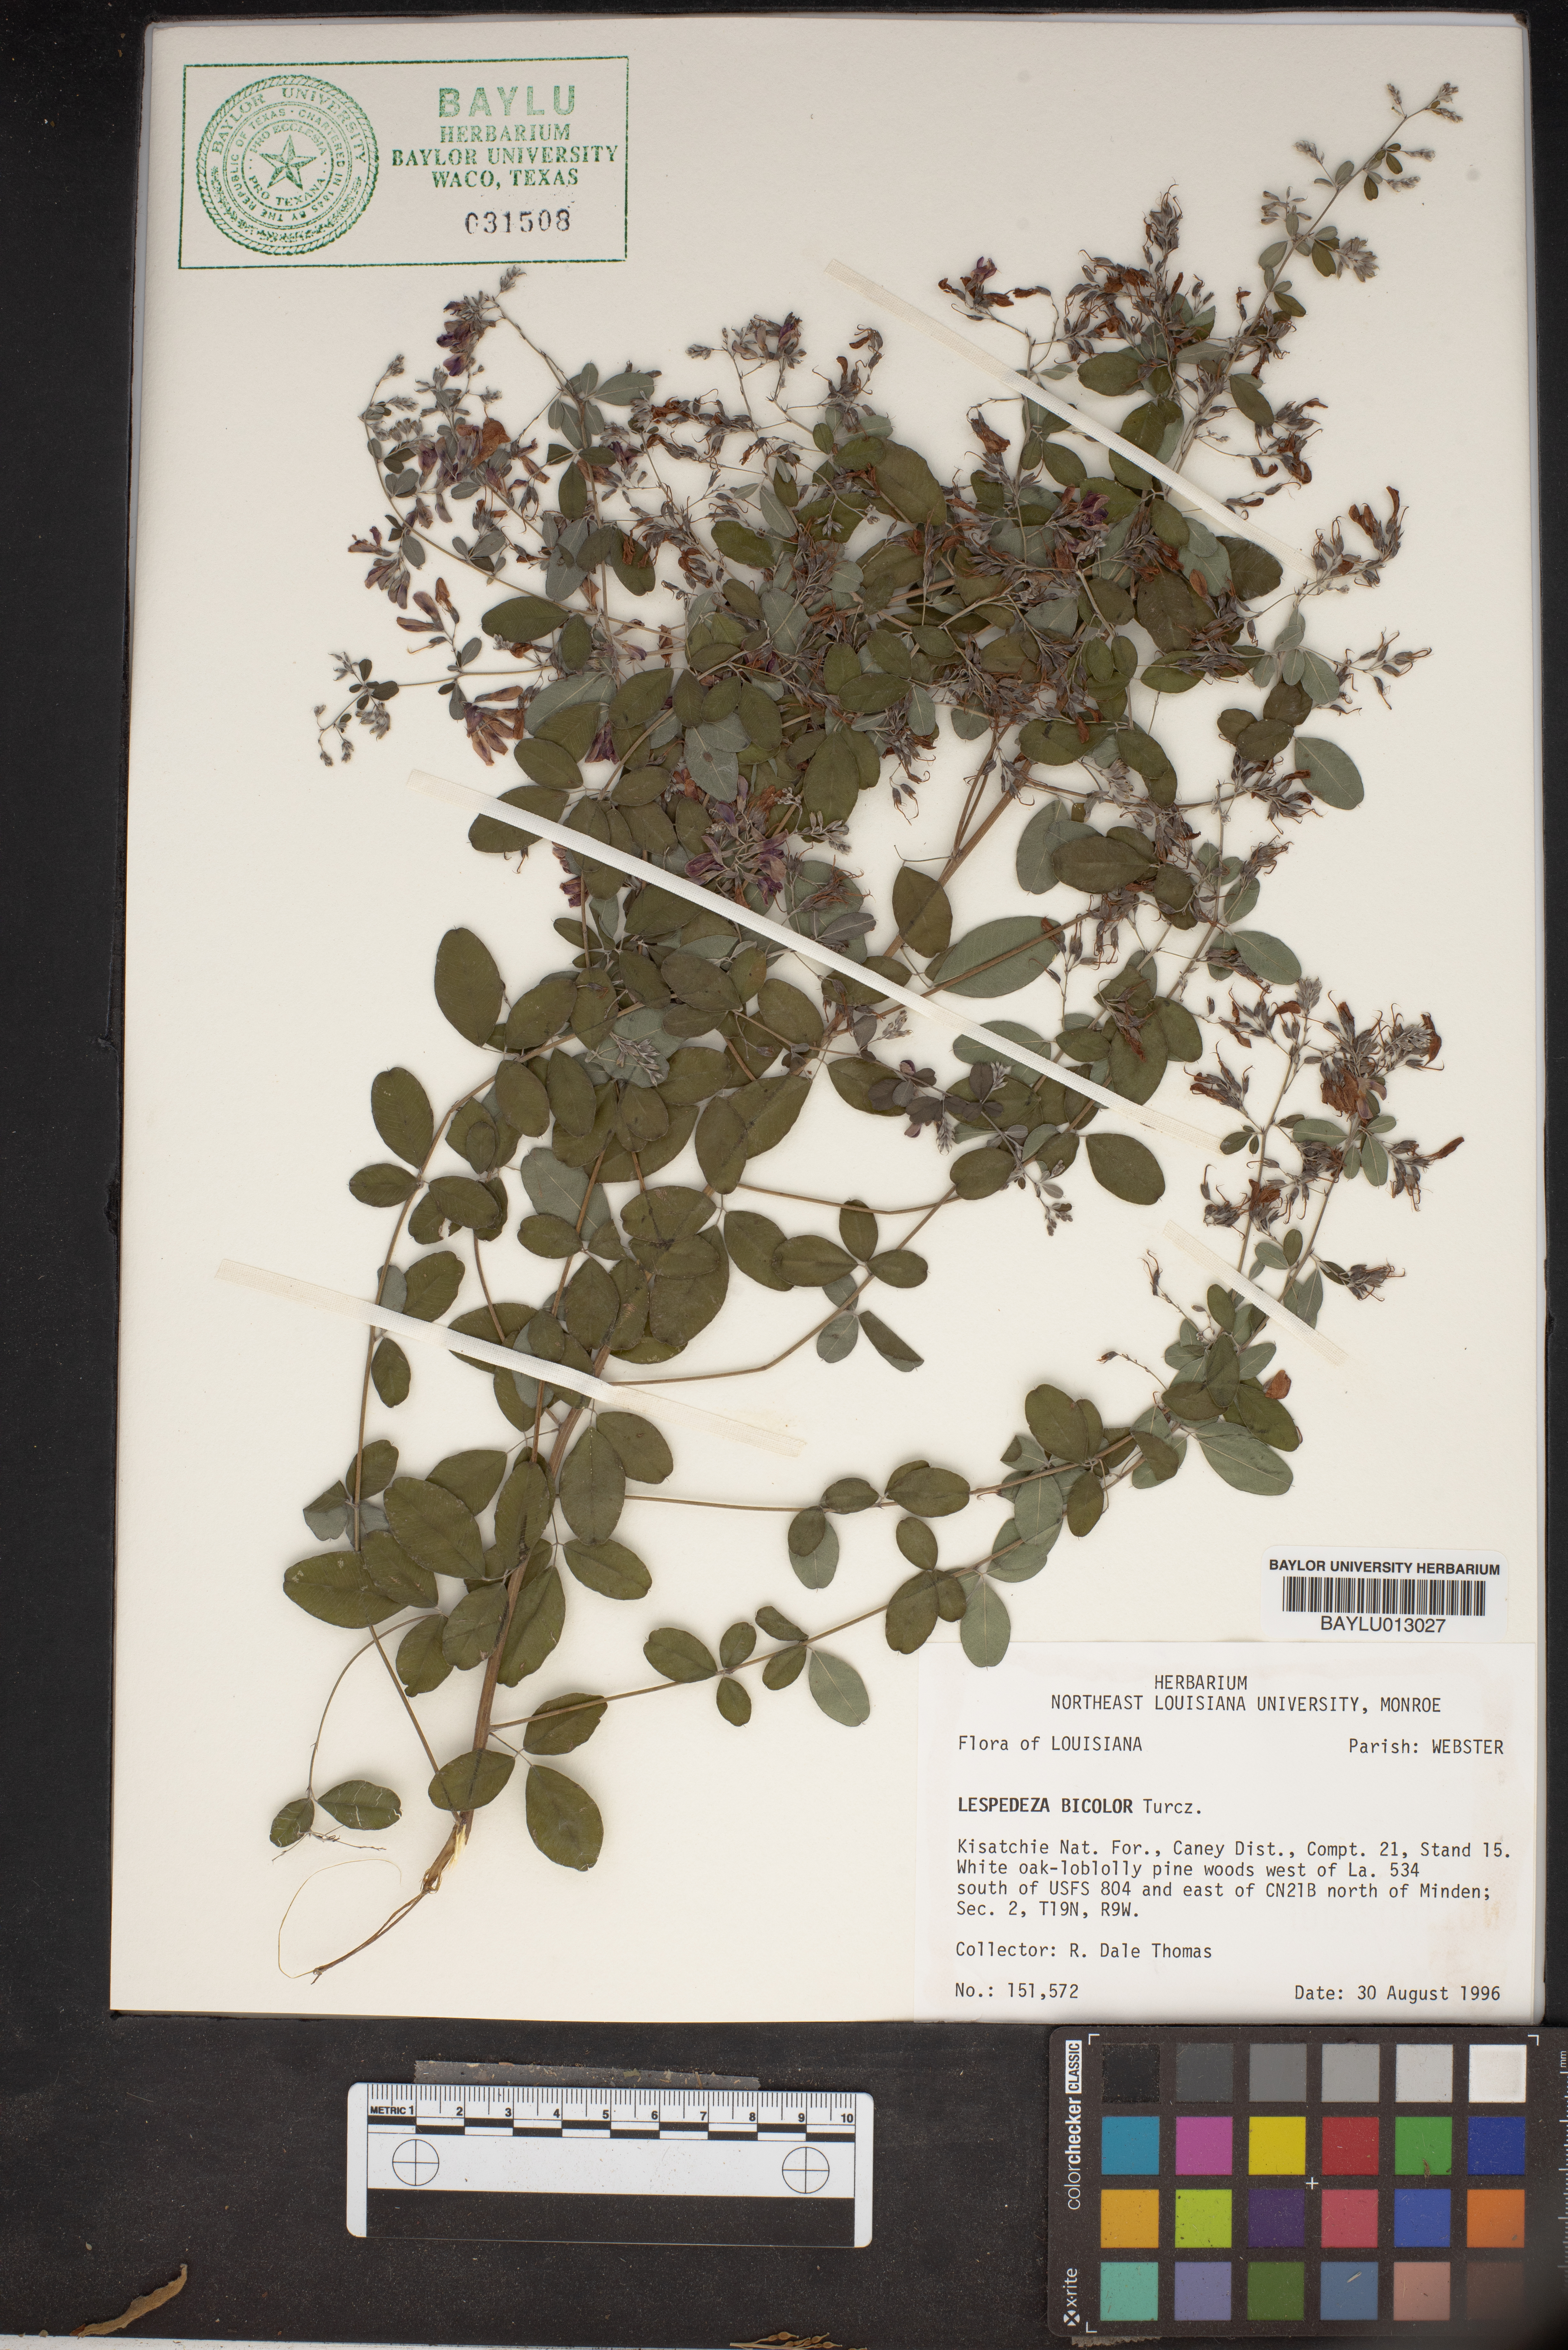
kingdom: Plantae
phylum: Tracheophyta
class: Magnoliopsida
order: Fabales
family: Fabaceae
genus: Lespedeza
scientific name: Lespedeza bicolor
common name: Shrub lespedeza
